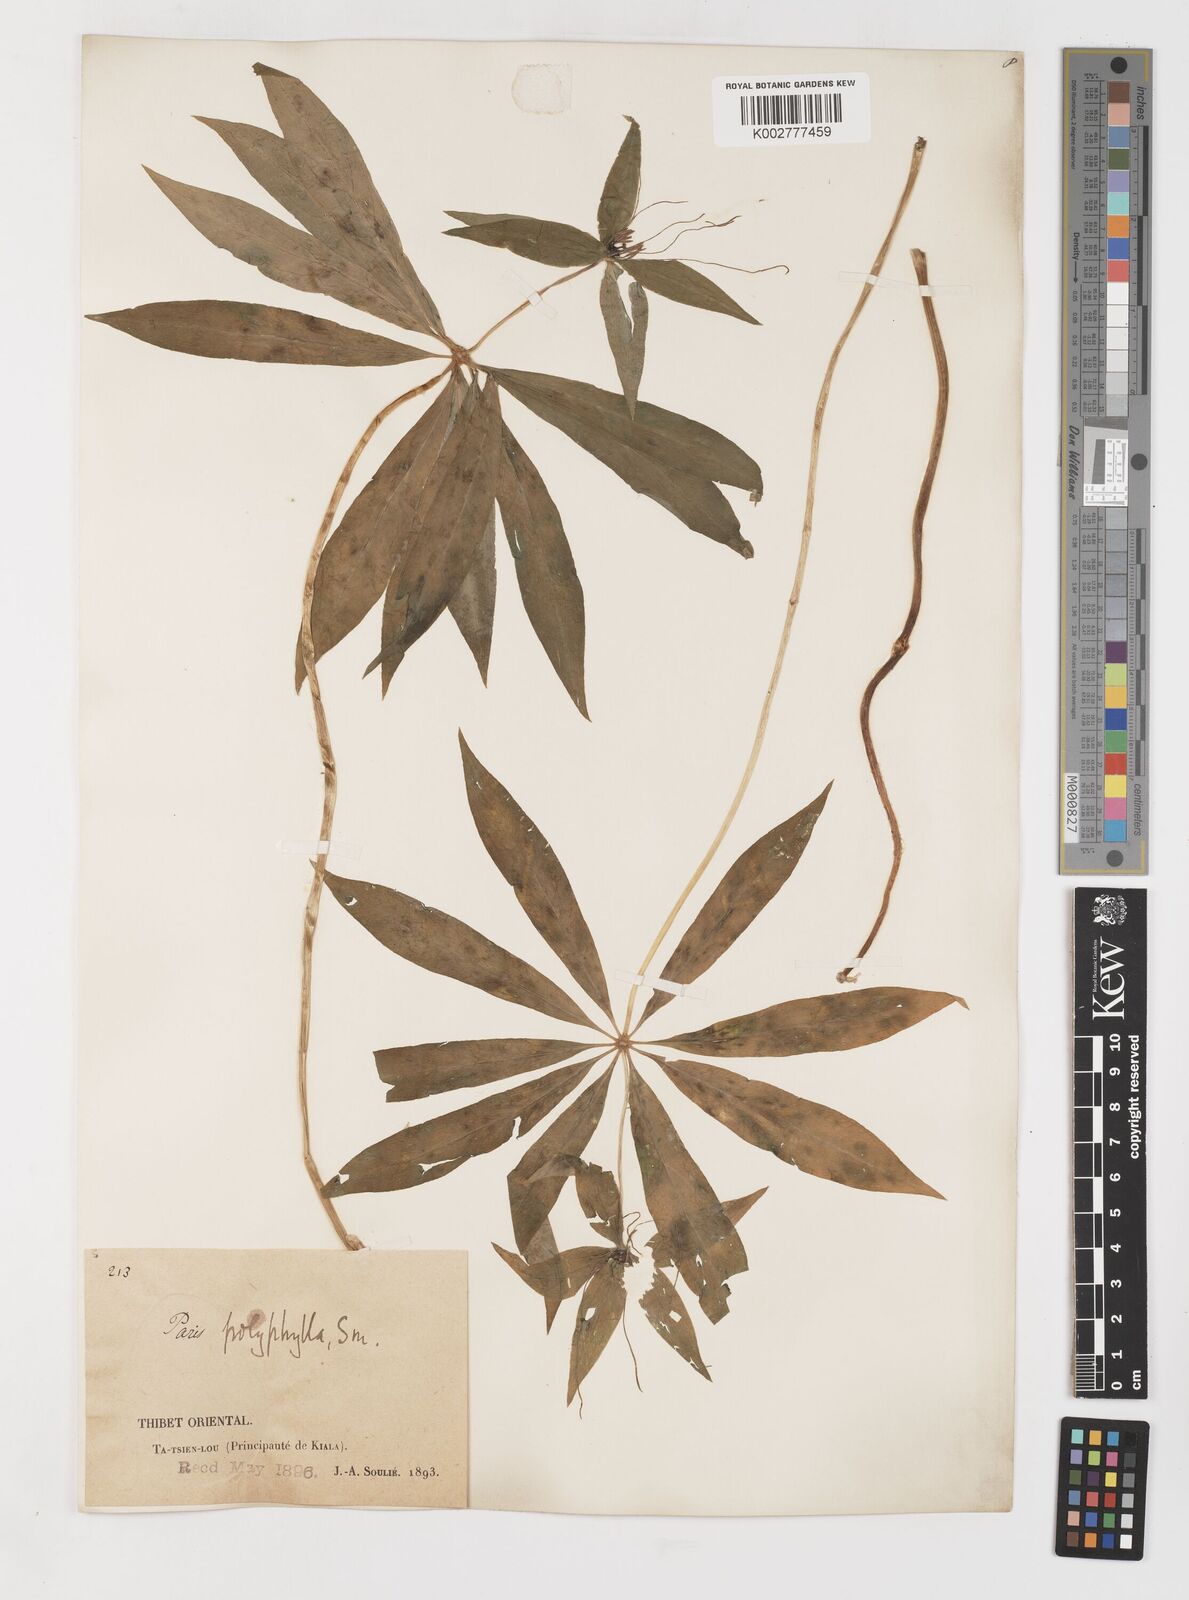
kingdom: Plantae
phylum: Tracheophyta
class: Liliopsida
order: Liliales
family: Melanthiaceae
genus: Paris
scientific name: Paris polyphylla
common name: Love apple
